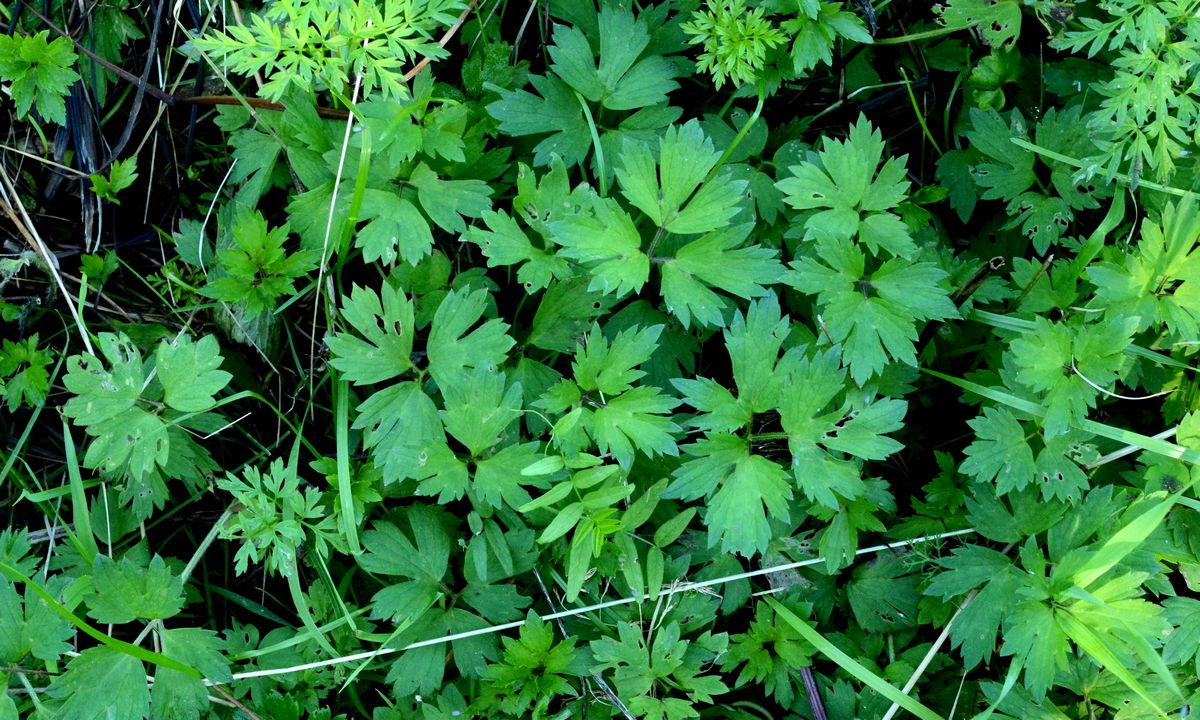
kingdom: Plantae
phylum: Tracheophyta
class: Magnoliopsida
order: Ranunculales
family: Ranunculaceae
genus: Ranunculus
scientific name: Ranunculus repens
